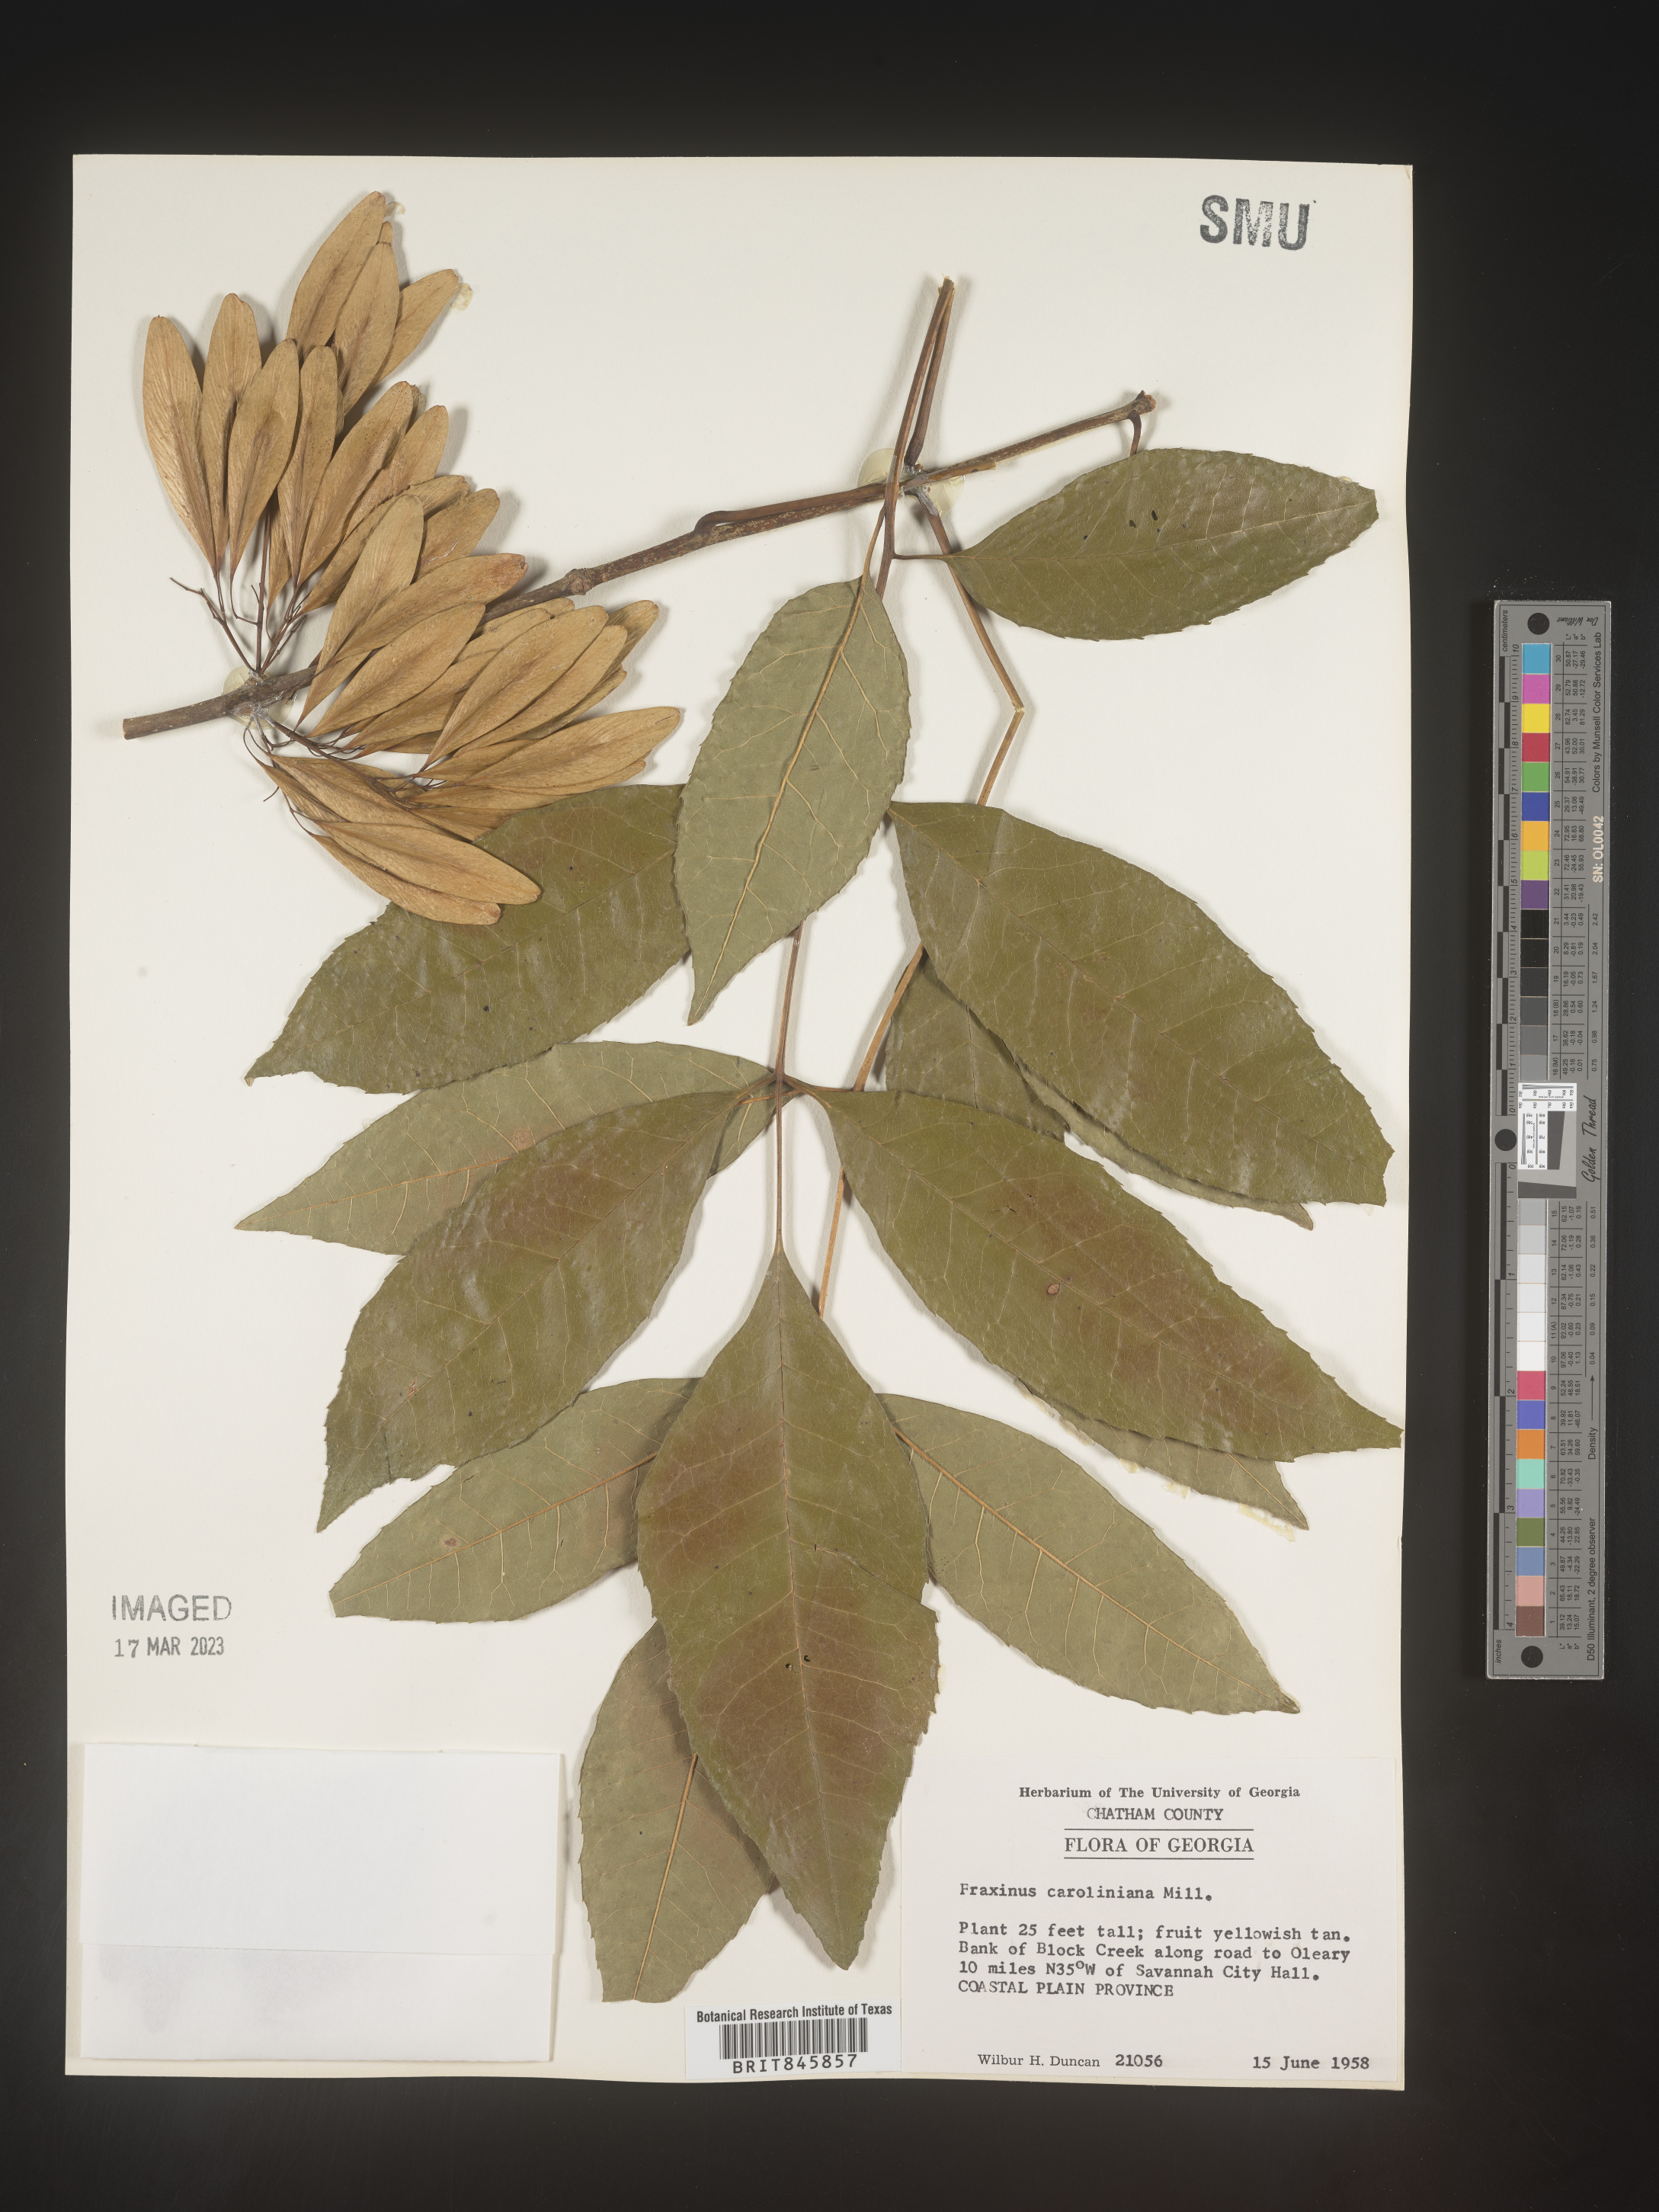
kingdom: Plantae
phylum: Tracheophyta
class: Magnoliopsida
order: Lamiales
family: Oleaceae
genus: Fraxinus
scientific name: Fraxinus caroliniana
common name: Carolina ash
